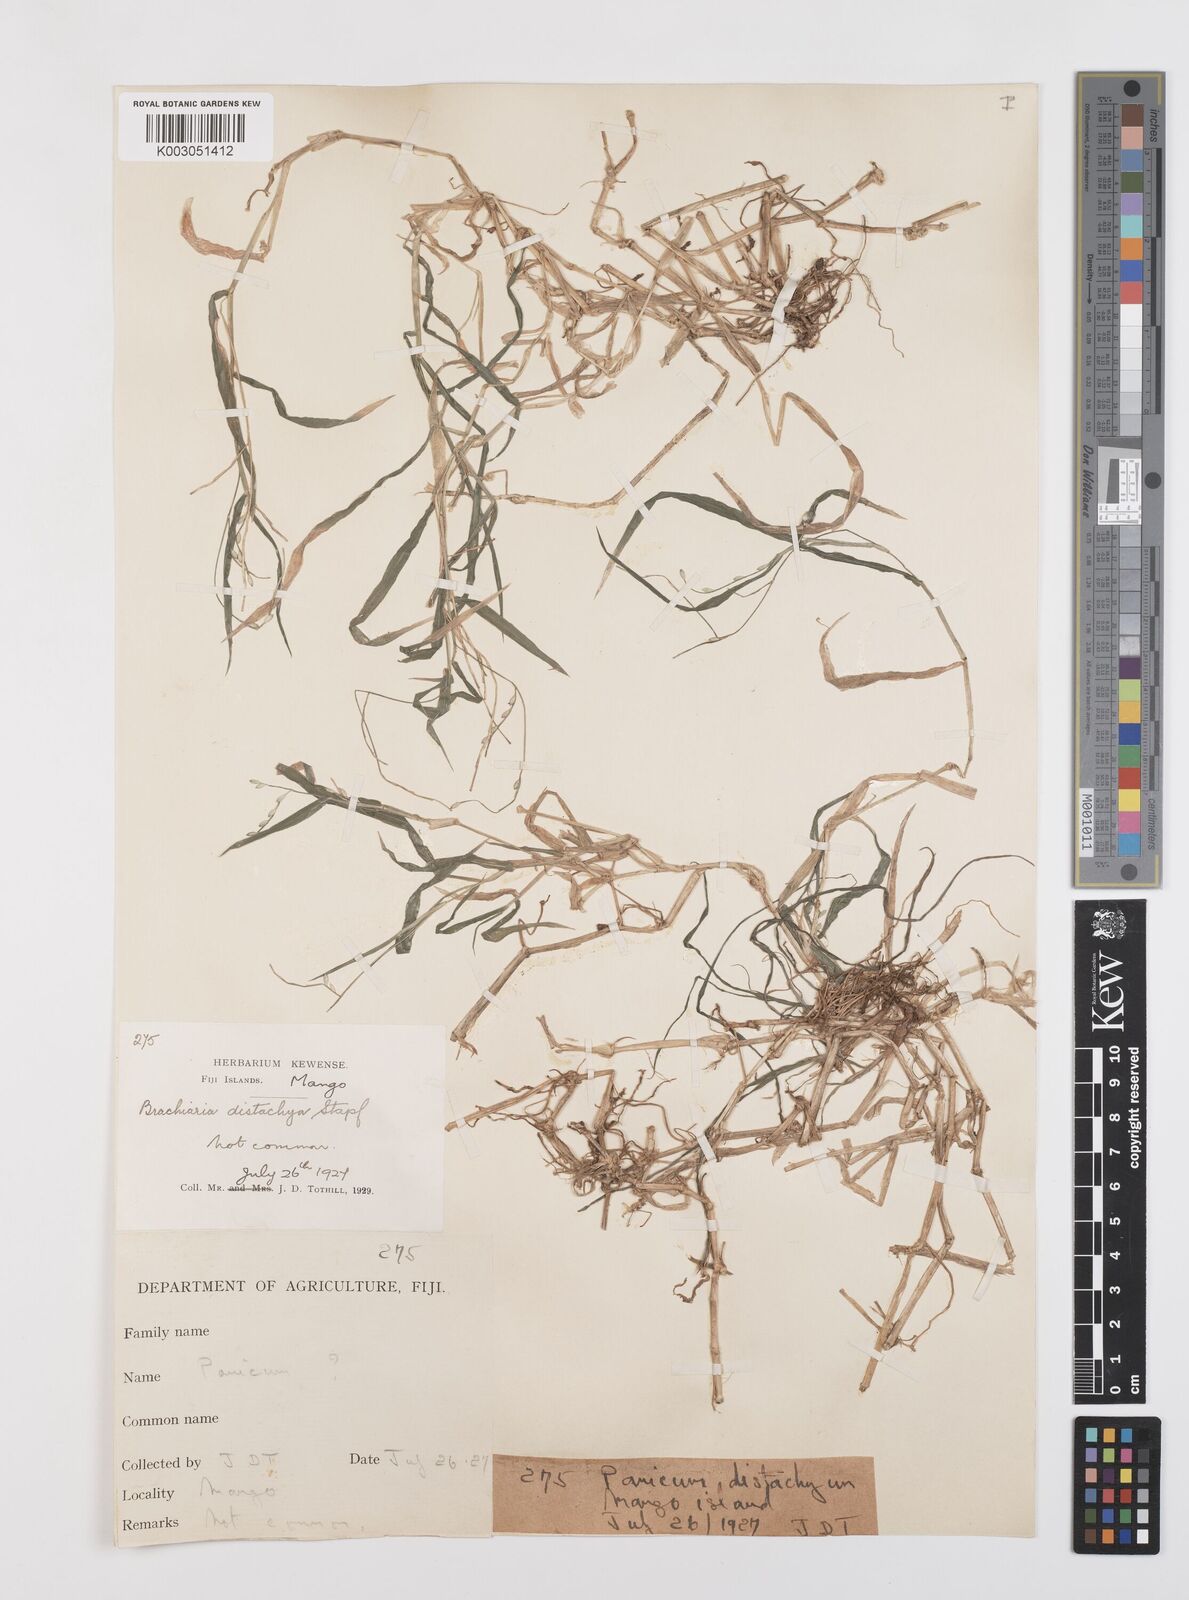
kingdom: Plantae
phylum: Tracheophyta
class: Liliopsida
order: Poales
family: Poaceae
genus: Urochloa
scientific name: Urochloa subquadripara
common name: Armgrass millet
